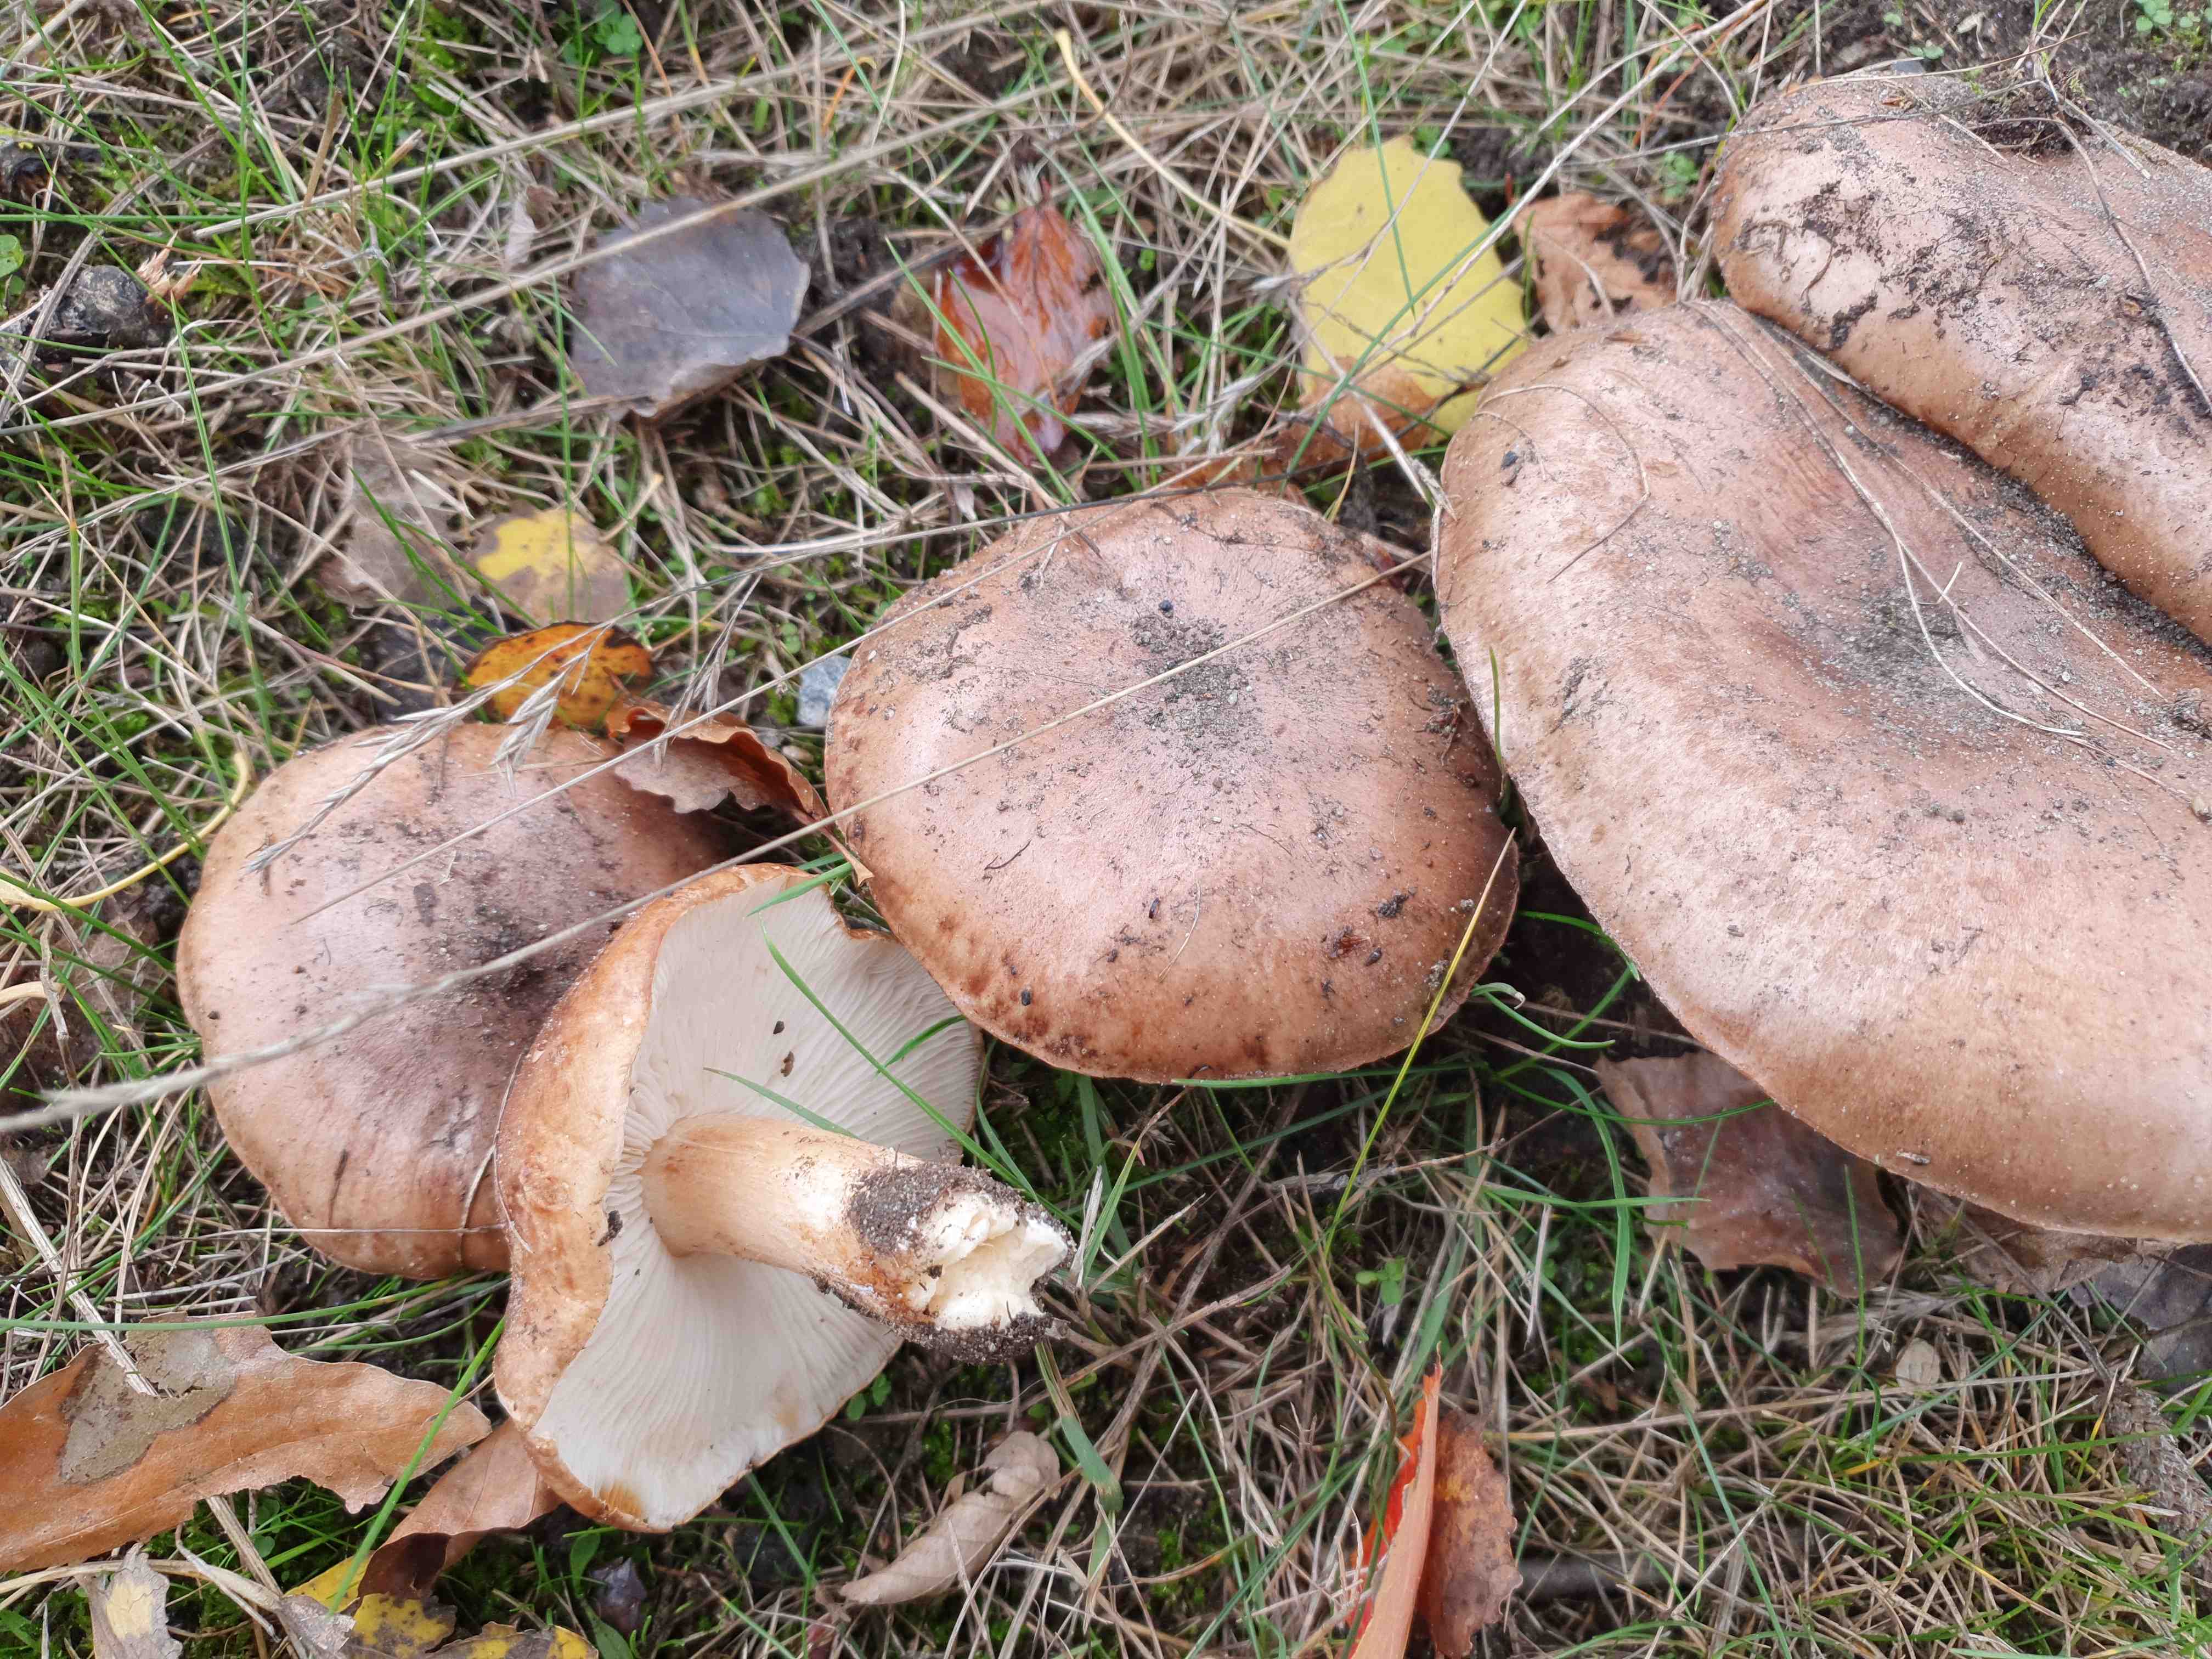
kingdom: Fungi
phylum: Basidiomycota
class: Agaricomycetes
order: Agaricales
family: Tricholomataceae
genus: Tricholoma
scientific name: Tricholoma populinum
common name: poppel-ridderhat
